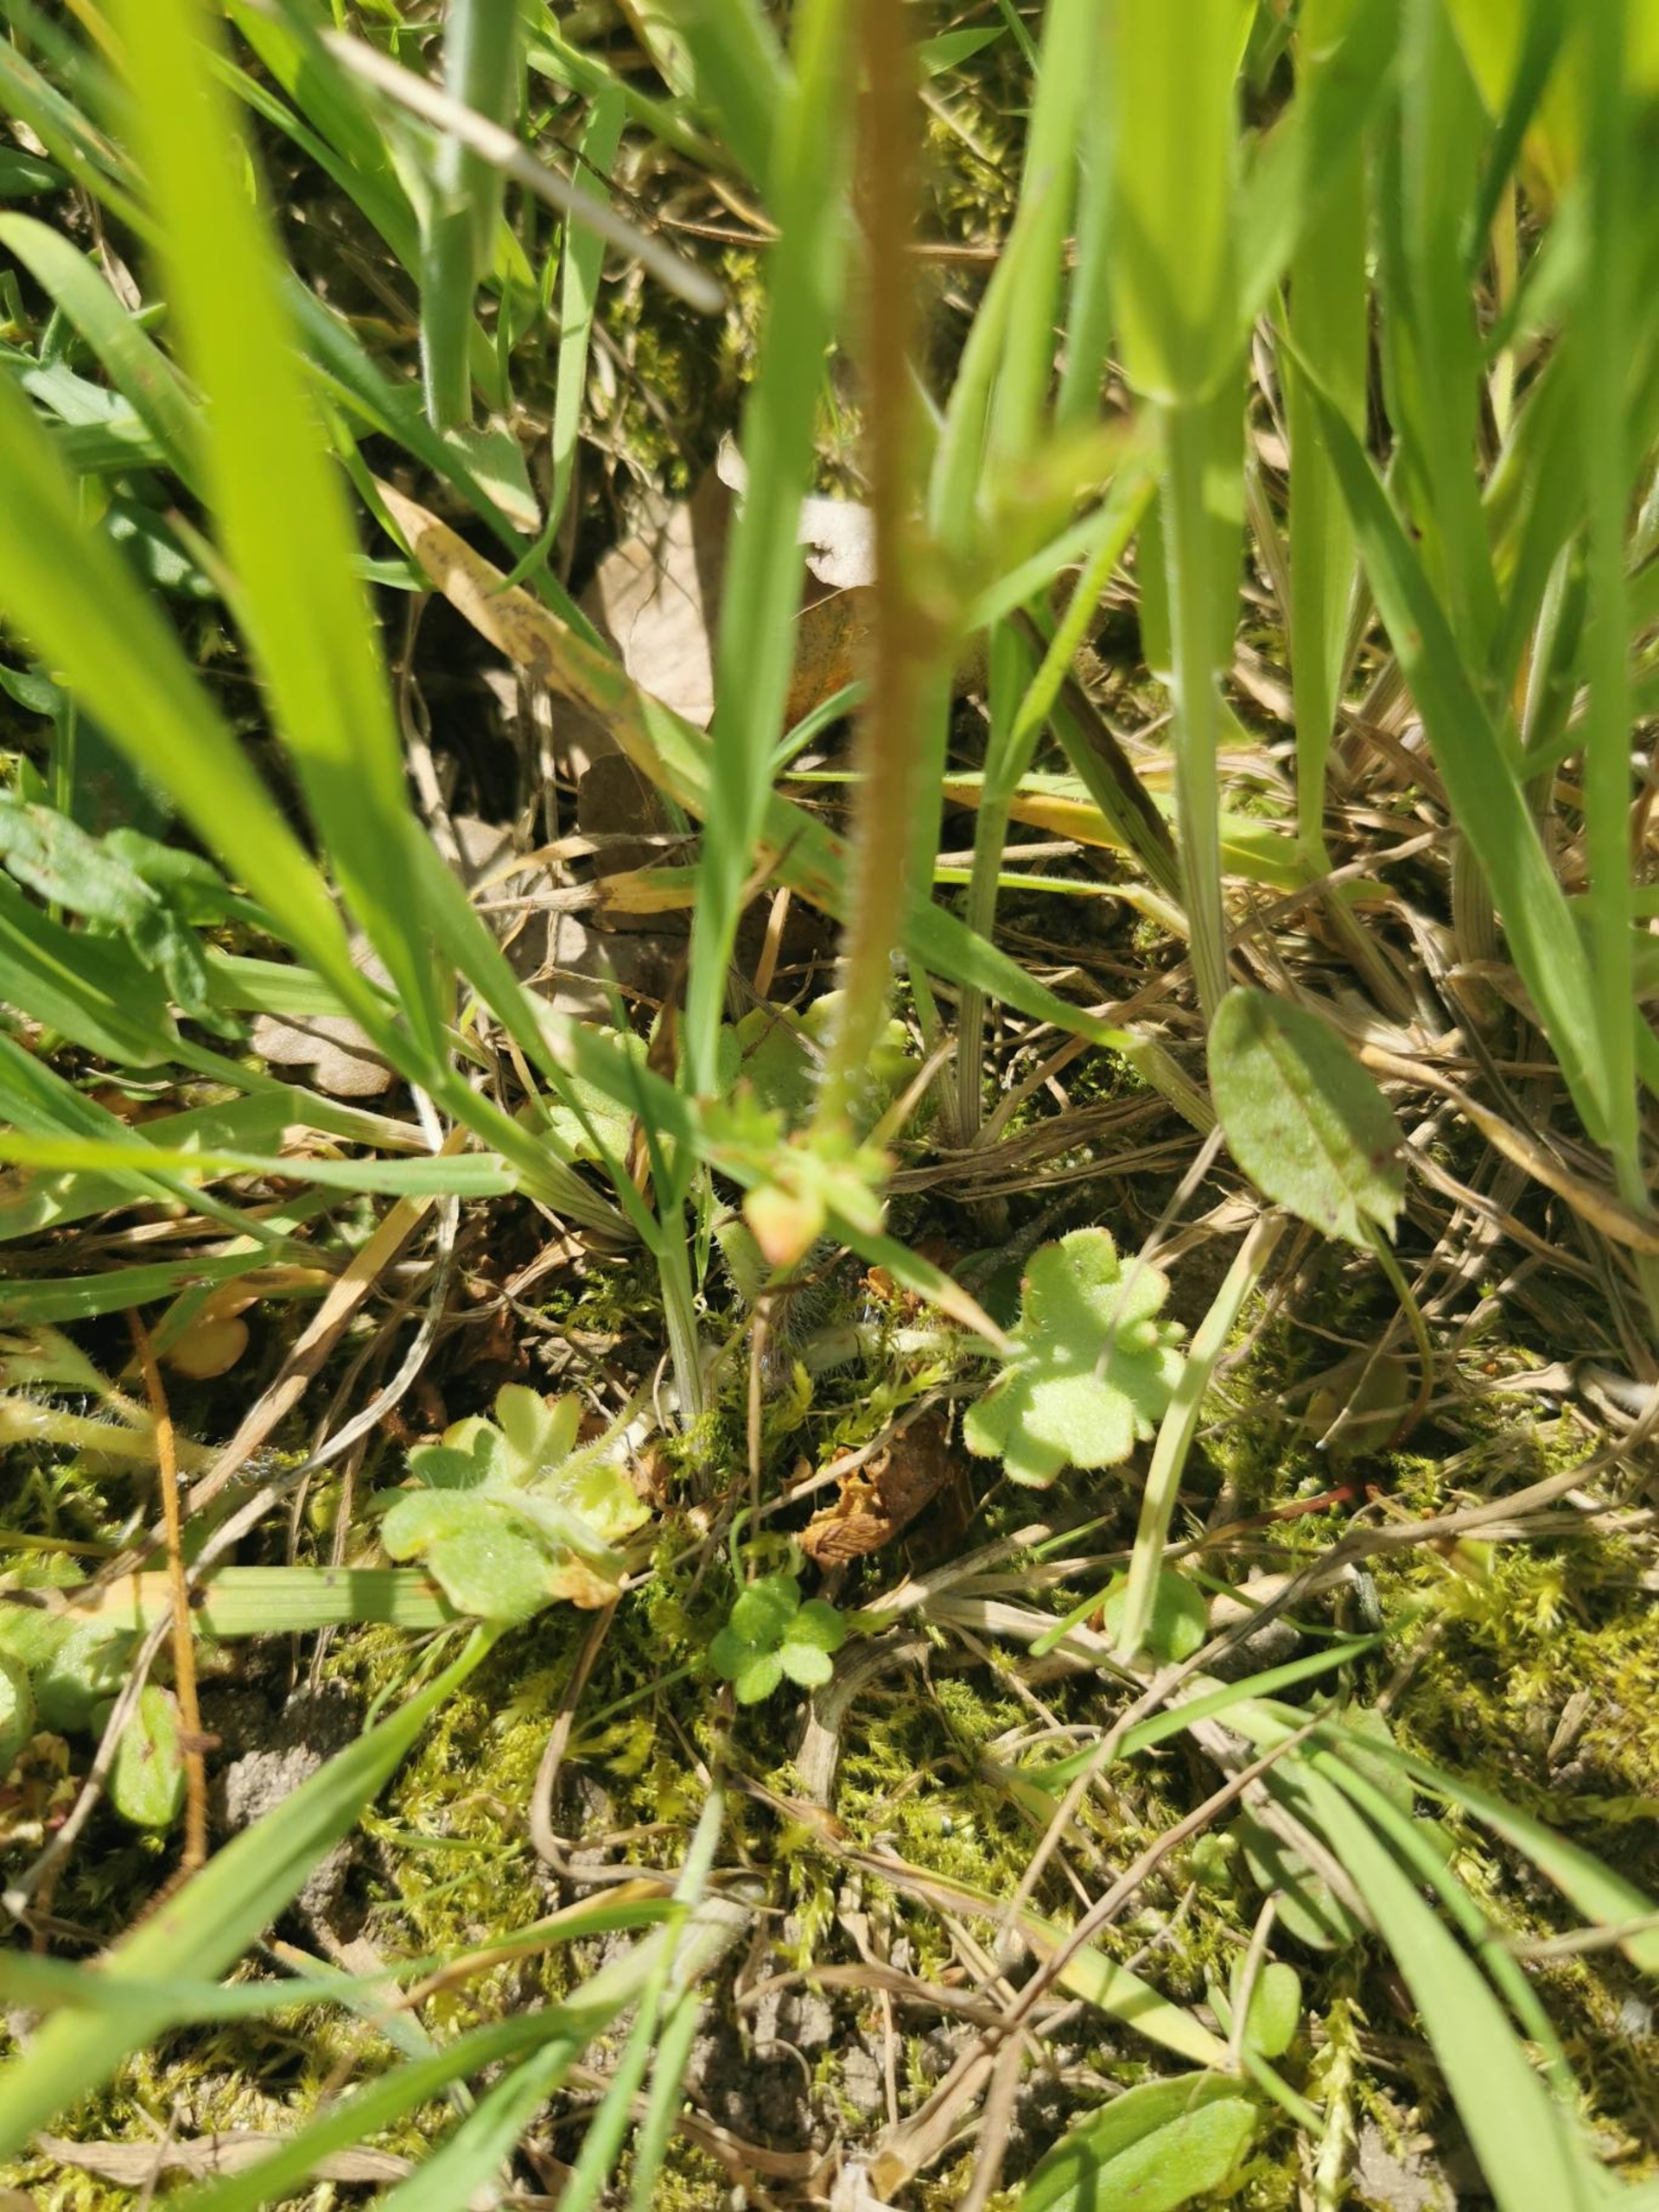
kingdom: Plantae
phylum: Tracheophyta
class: Magnoliopsida
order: Saxifragales
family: Saxifragaceae
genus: Saxifraga
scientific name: Saxifraga granulata
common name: Kornet stenbræk
